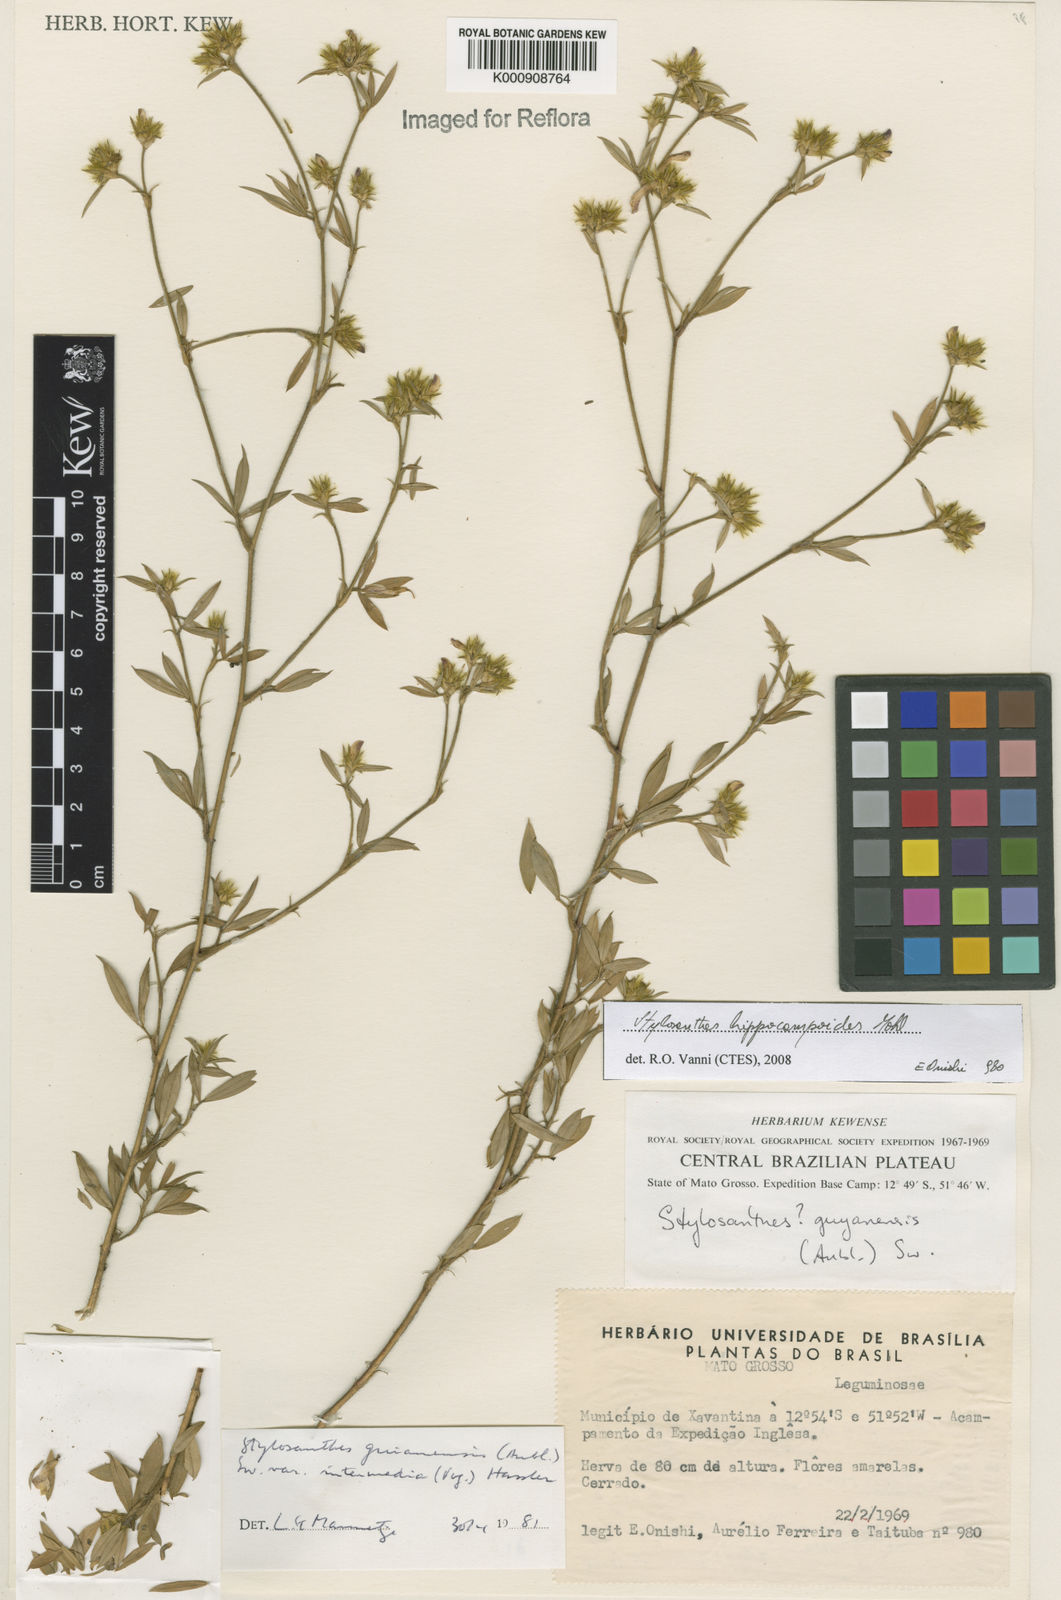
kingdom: Plantae
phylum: Tracheophyta
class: Magnoliopsida
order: Fabales
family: Fabaceae
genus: Stylosanthes
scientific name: Stylosanthes hippocampoides
